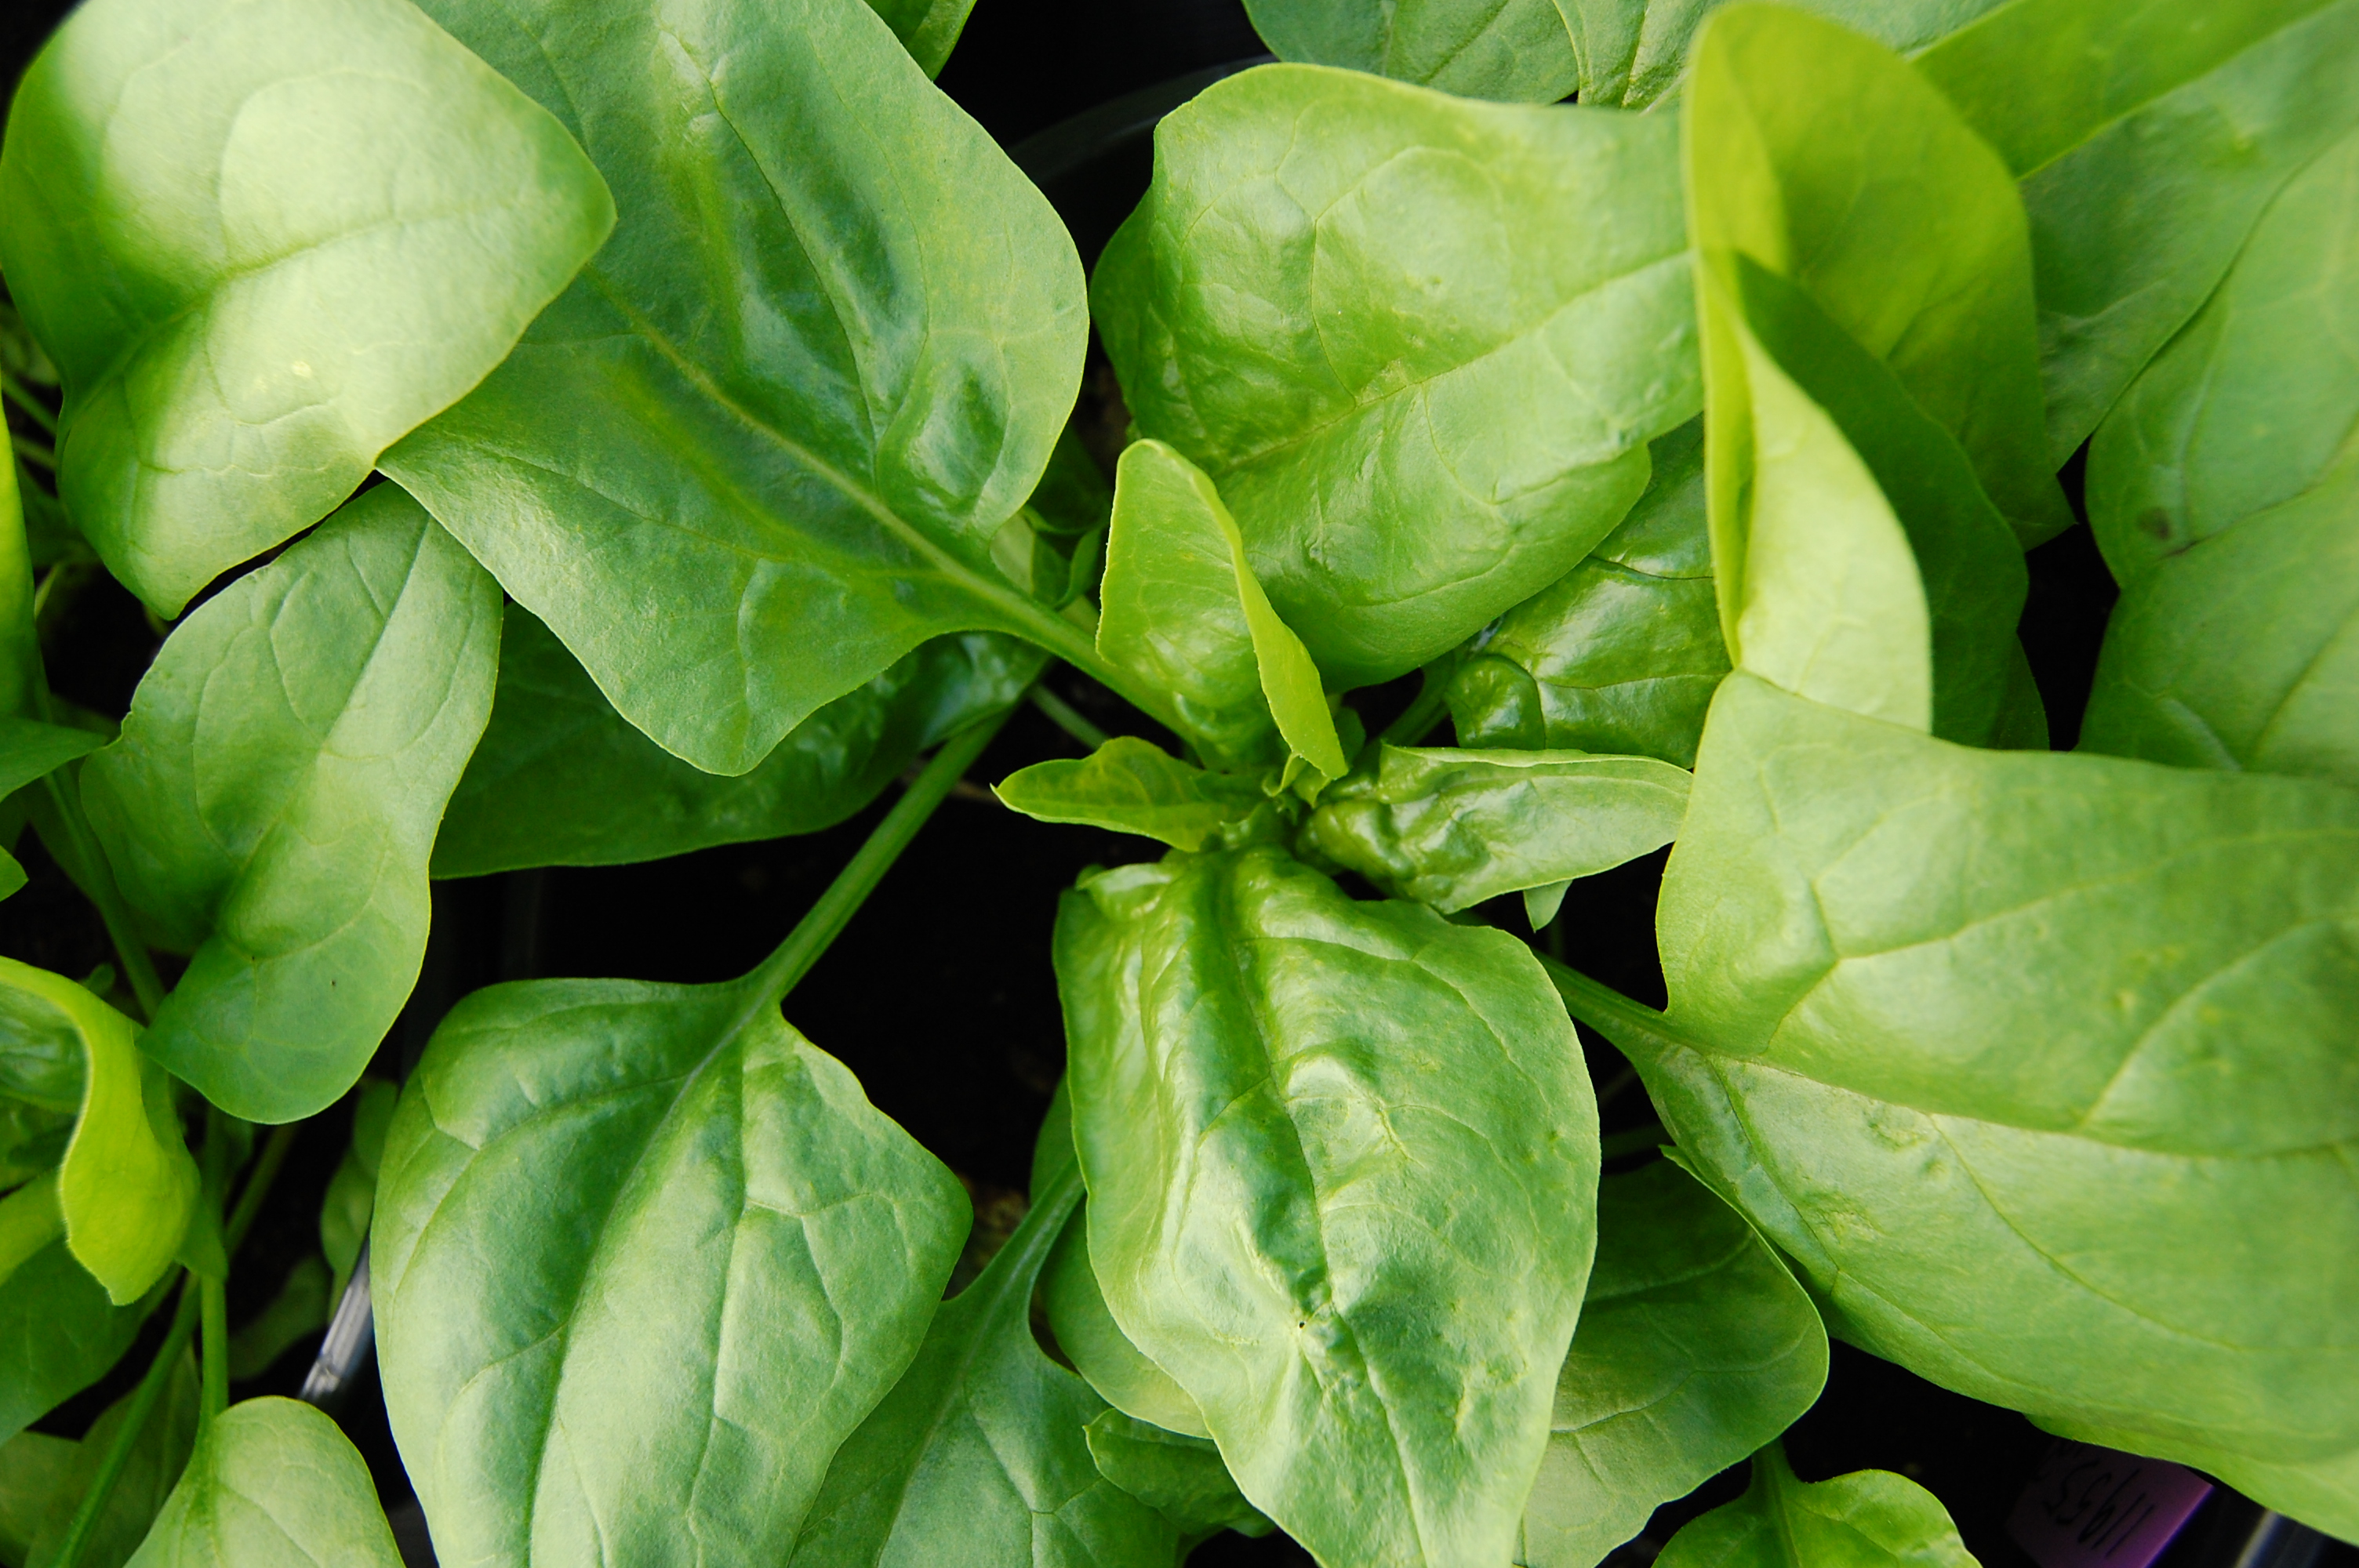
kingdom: Plantae
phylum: Tracheophyta
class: Magnoliopsida
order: Caryophyllales
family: Amaranthaceae
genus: Spinacia
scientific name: Spinacia oleracea
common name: Spinach
